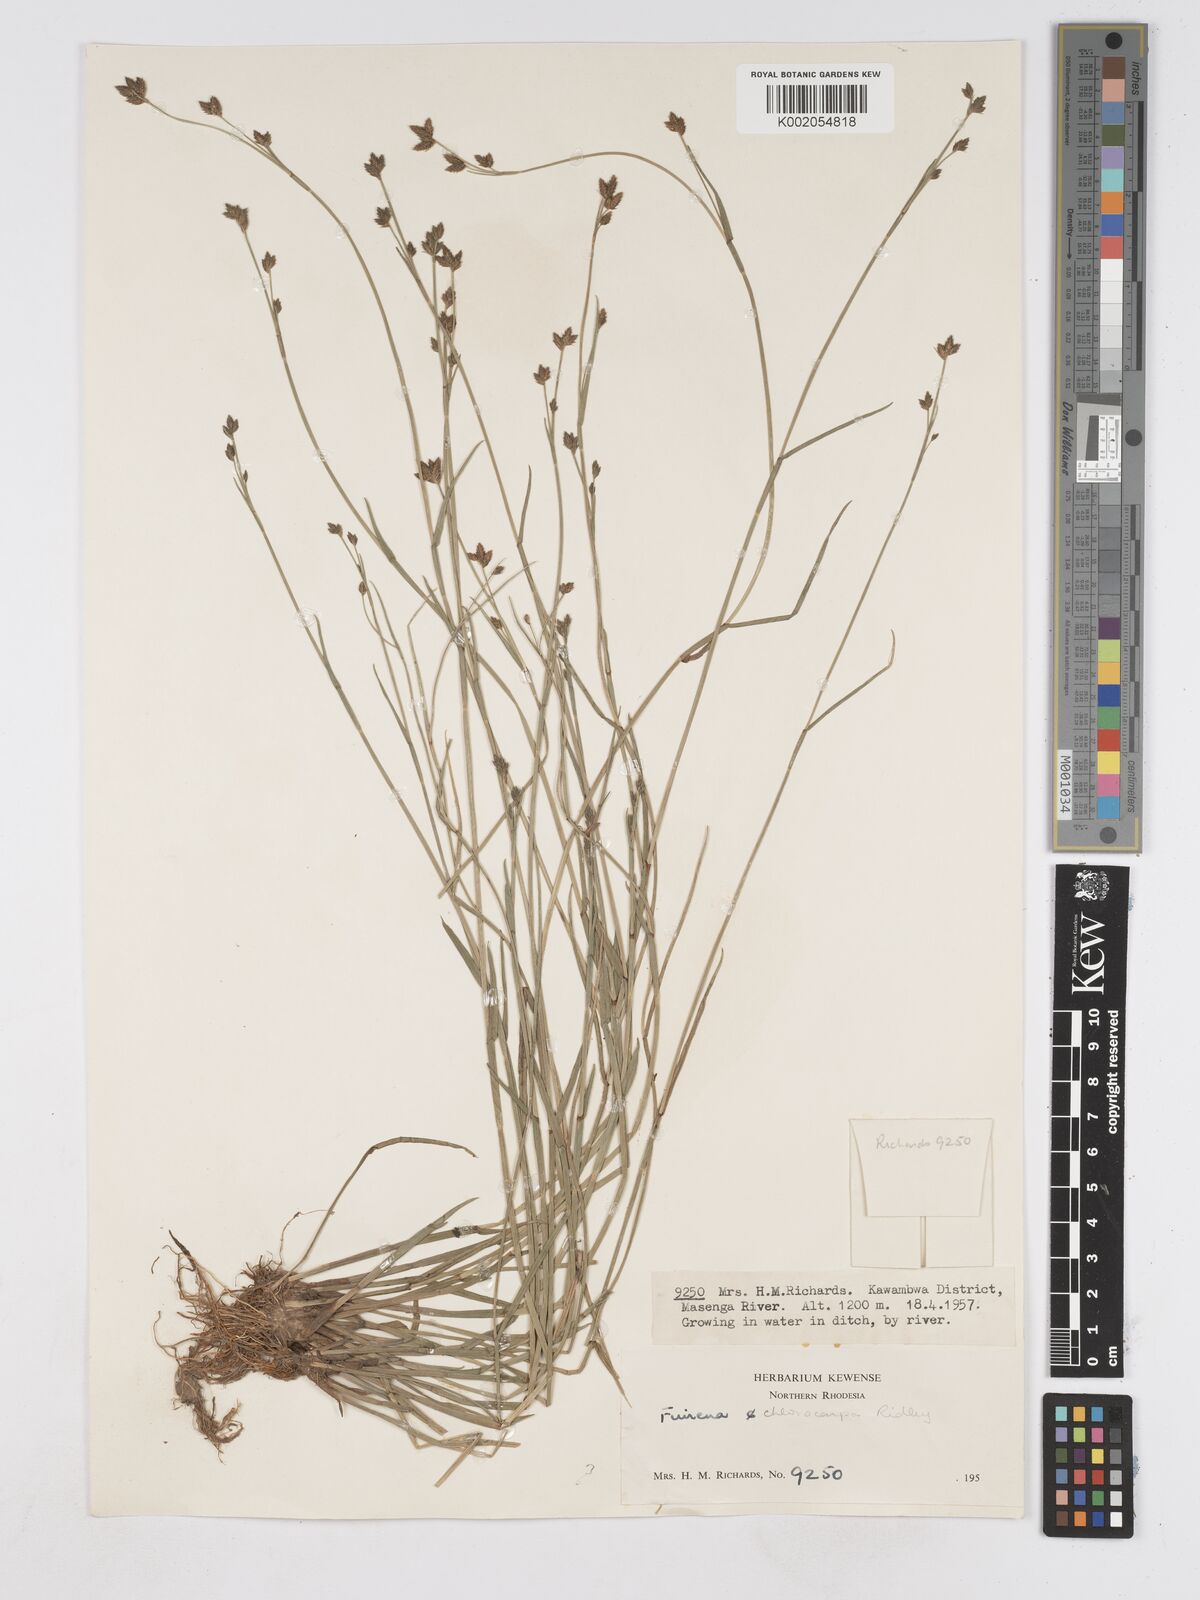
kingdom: Plantae
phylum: Tracheophyta
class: Liliopsida
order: Poales
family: Cyperaceae
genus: Fuirena
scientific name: Fuirena stricta
